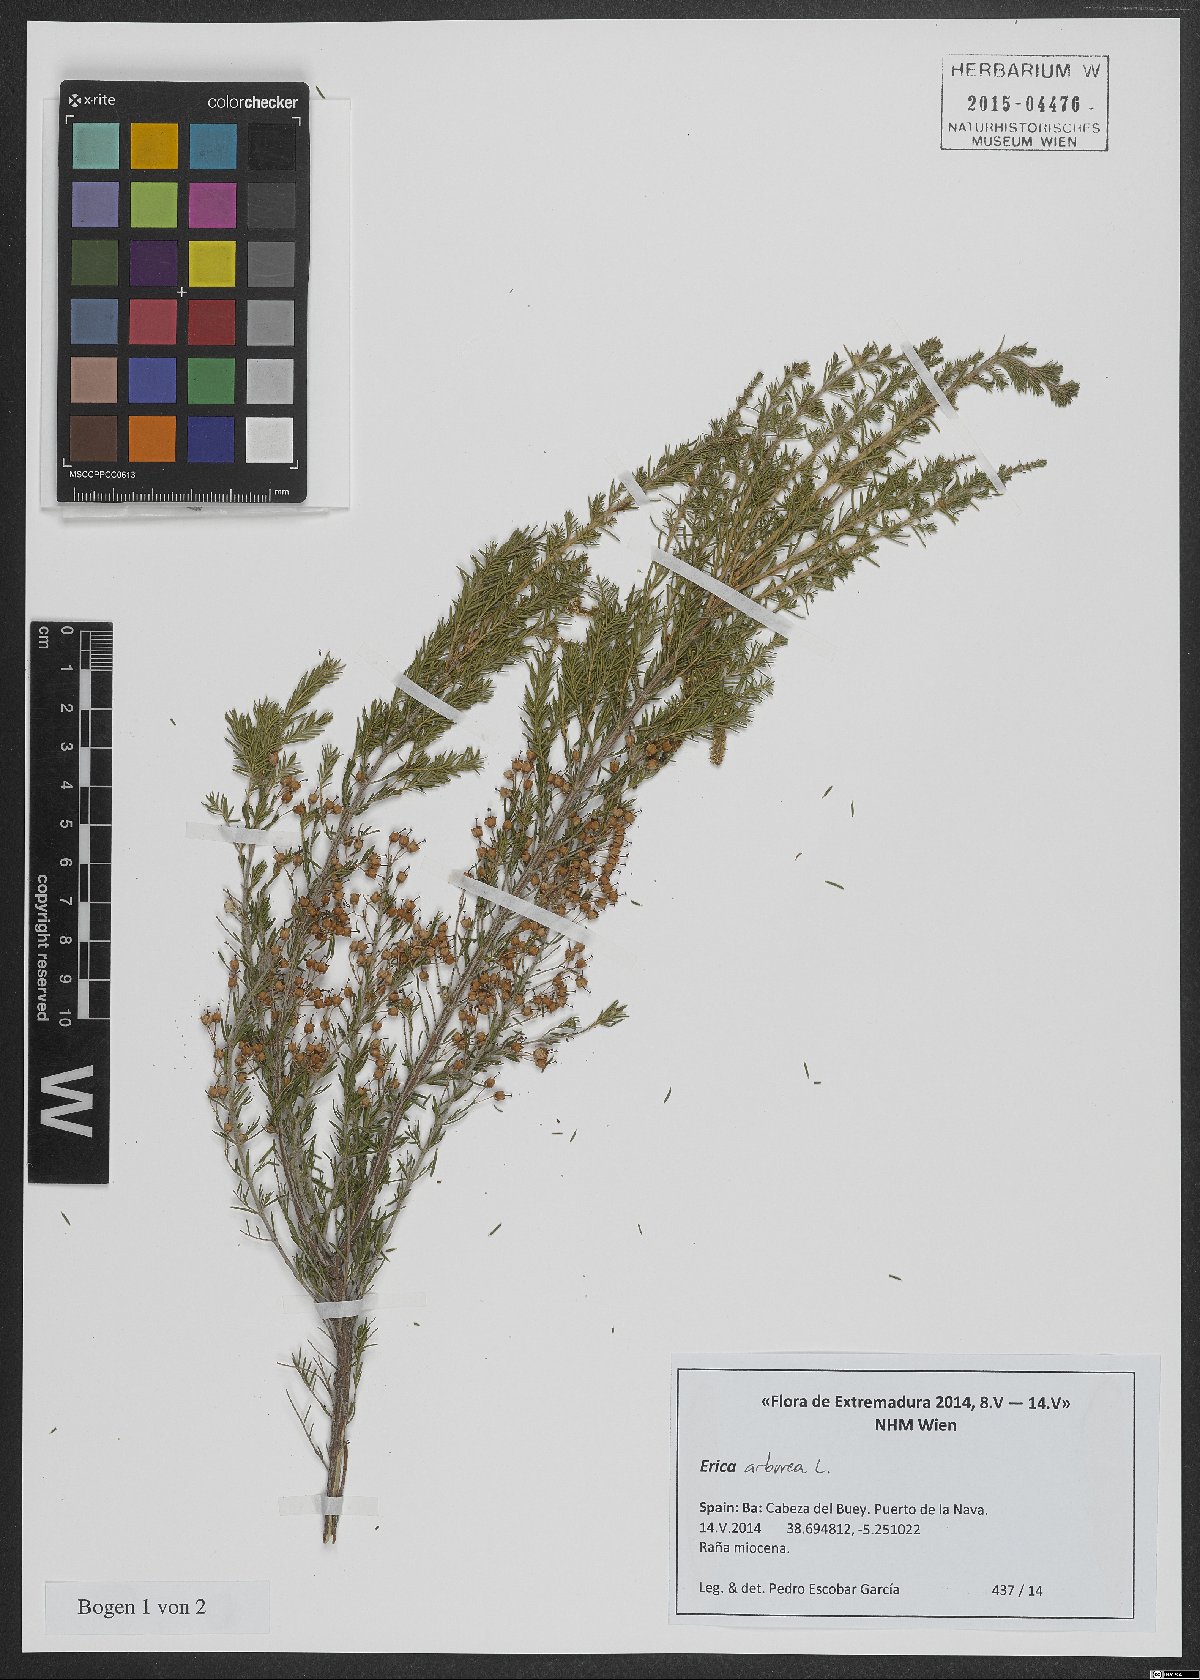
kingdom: Plantae
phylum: Tracheophyta
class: Magnoliopsida
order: Ericales
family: Ericaceae
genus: Erica
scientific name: Erica arborea
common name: Tree heath
